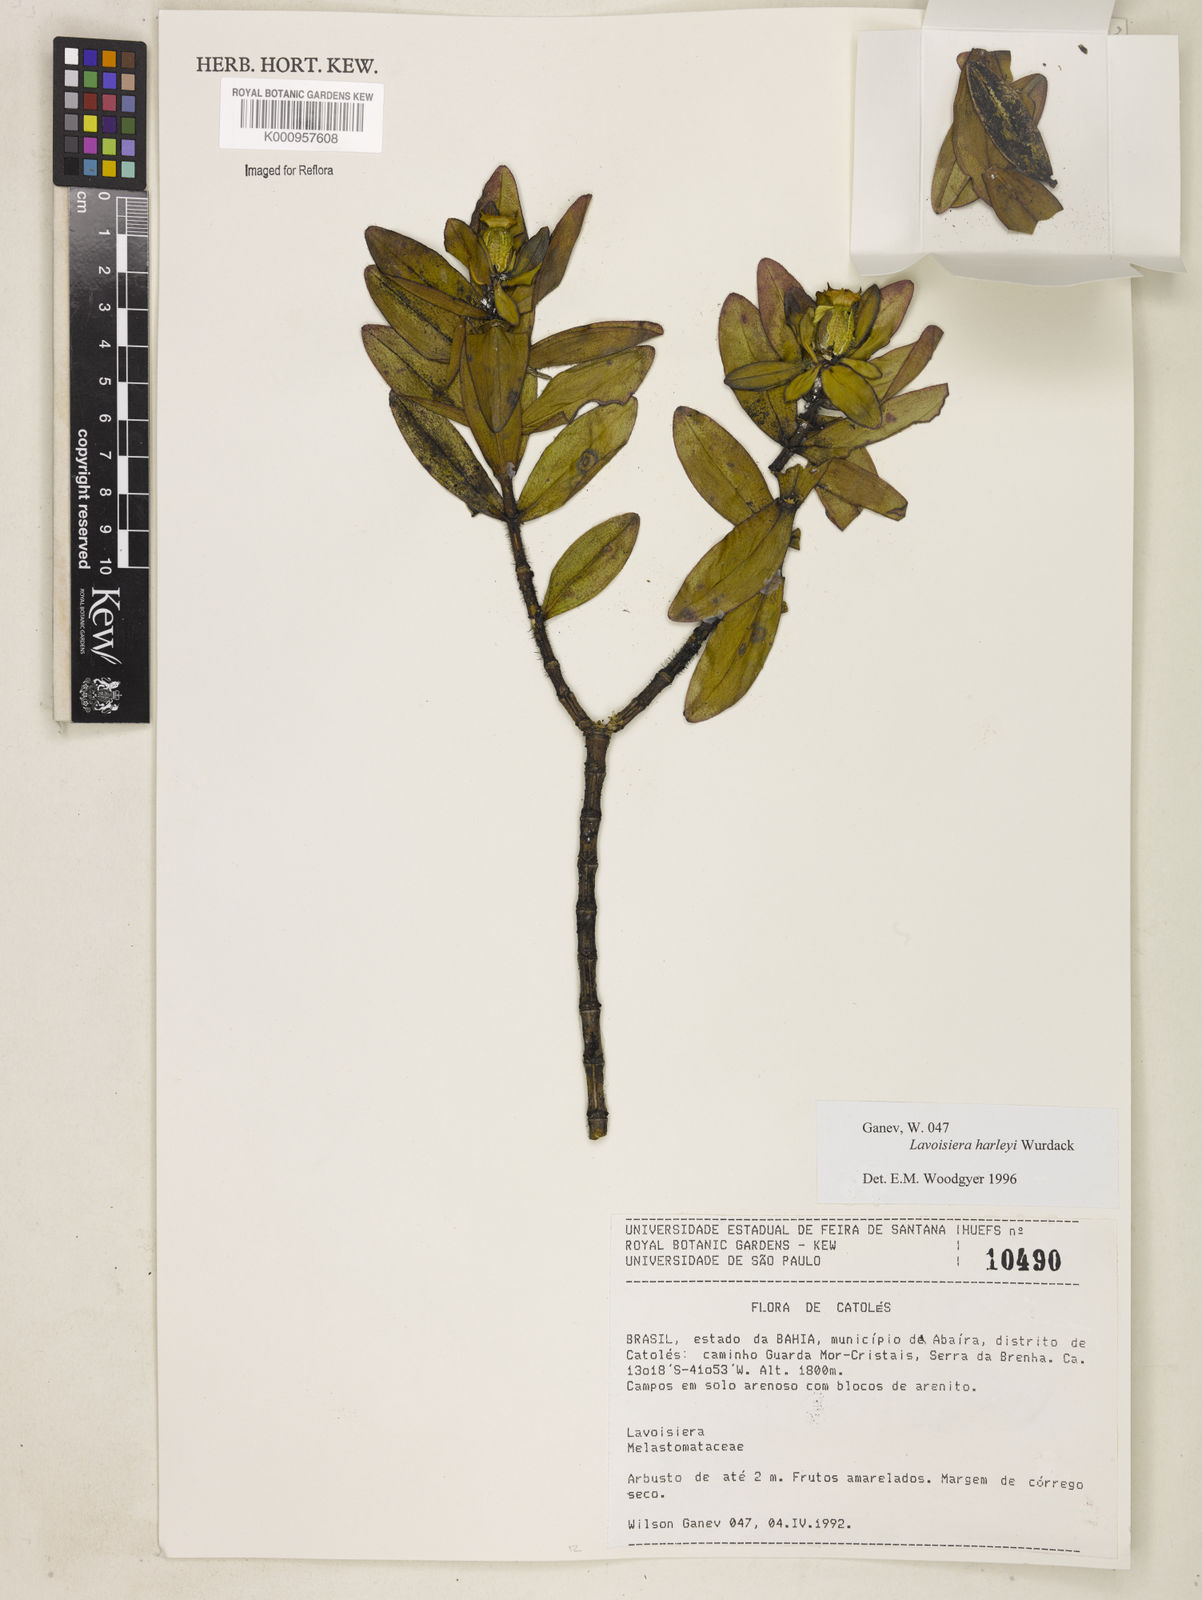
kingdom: Plantae
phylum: Tracheophyta
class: Magnoliopsida
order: Myrtales
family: Melastomataceae
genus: Microlicia
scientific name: Microlicia raymondii
